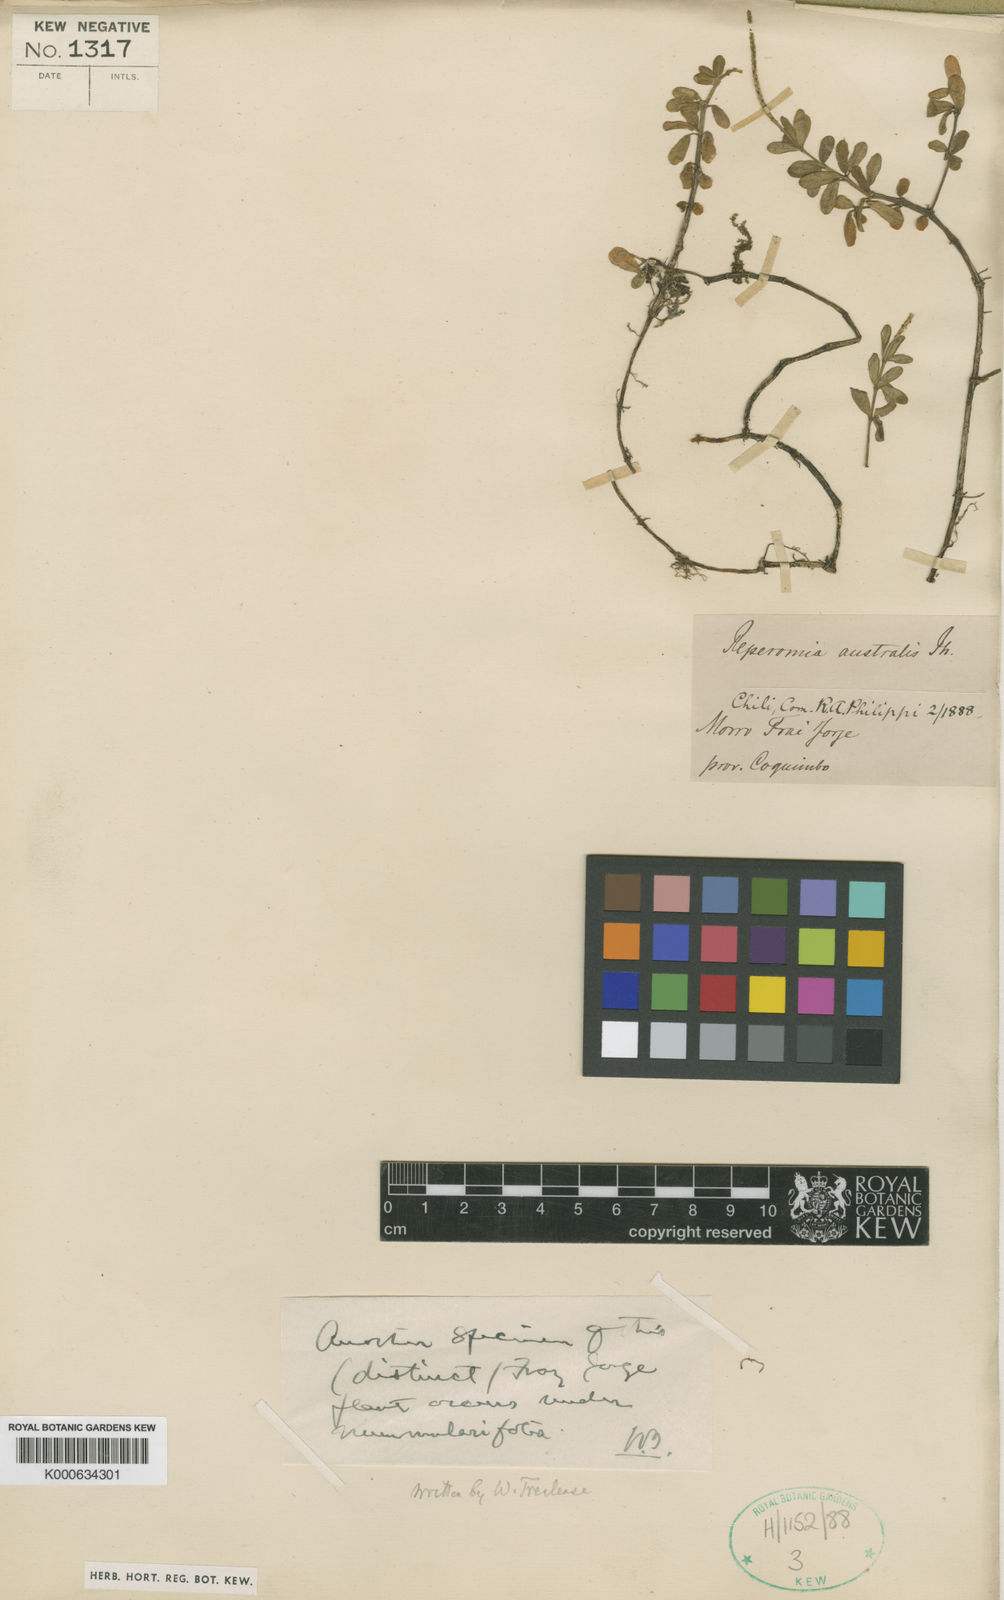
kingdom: Plantae
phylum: Tracheophyta
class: Magnoliopsida
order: Piperales
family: Piperaceae
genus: Peperomia
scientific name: Peperomia quadrifolia
